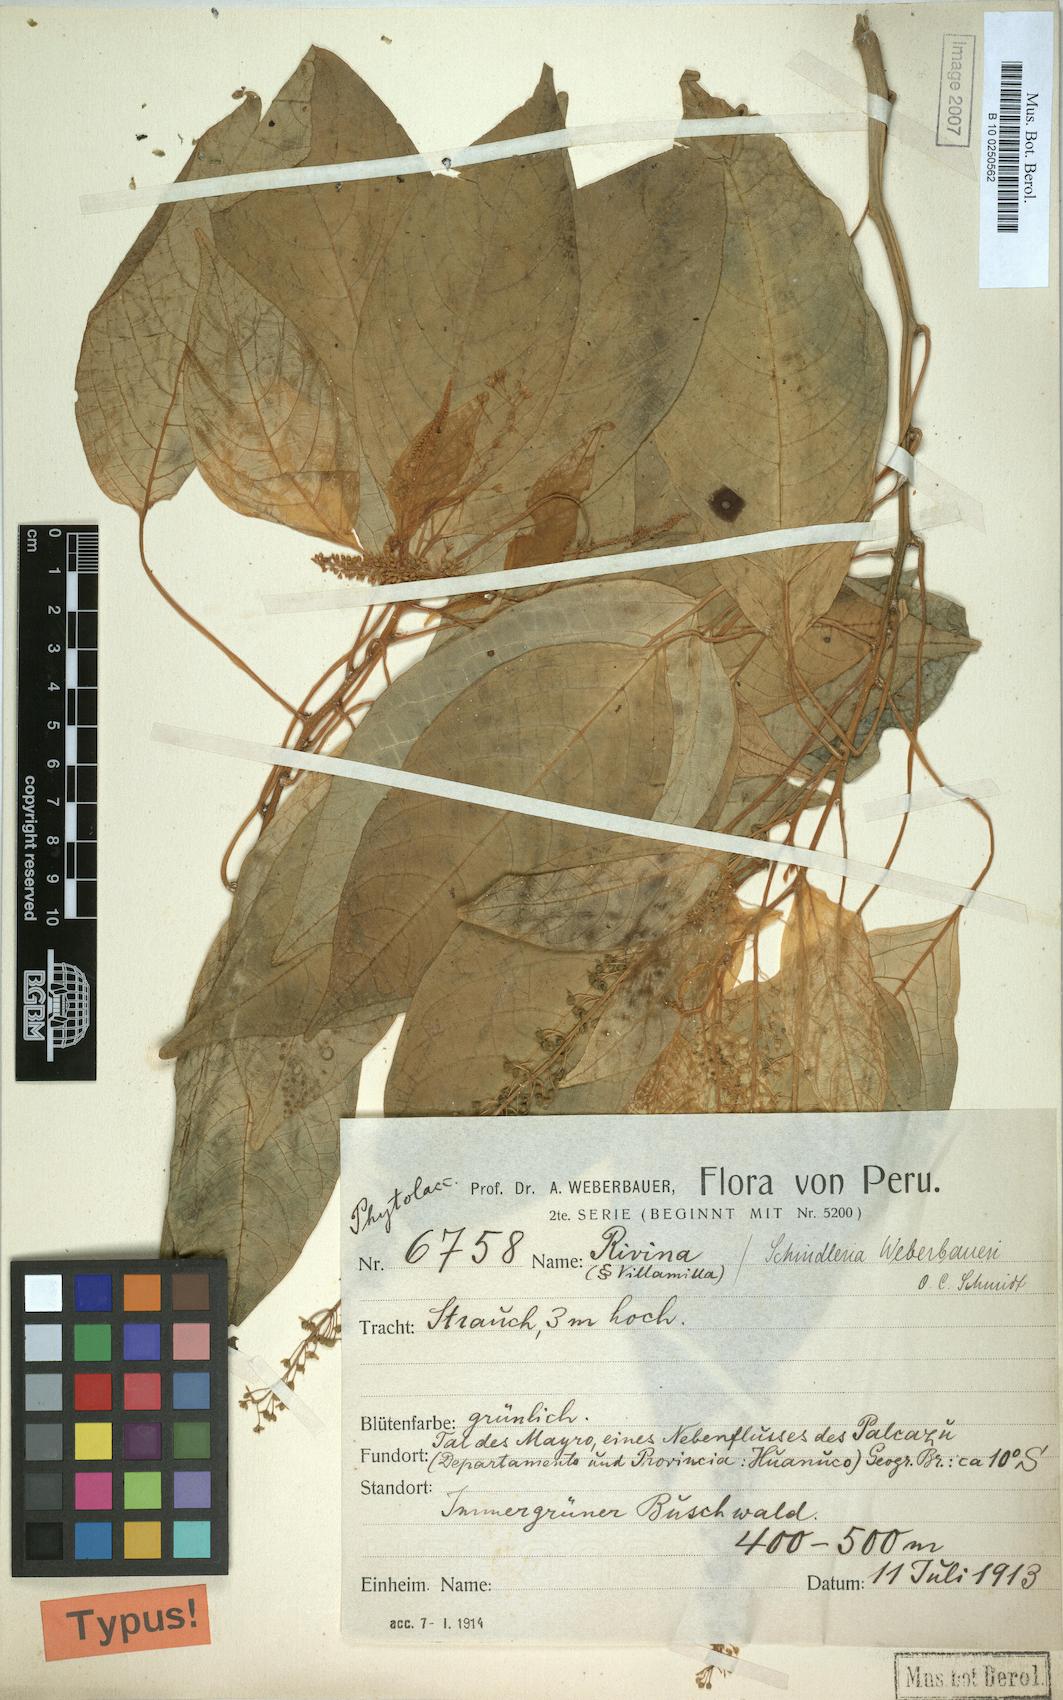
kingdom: Plantae
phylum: Tracheophyta
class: Magnoliopsida
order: Caryophyllales
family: Phytolaccaceae
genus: Schindleria
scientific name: Schindleria densiflora
